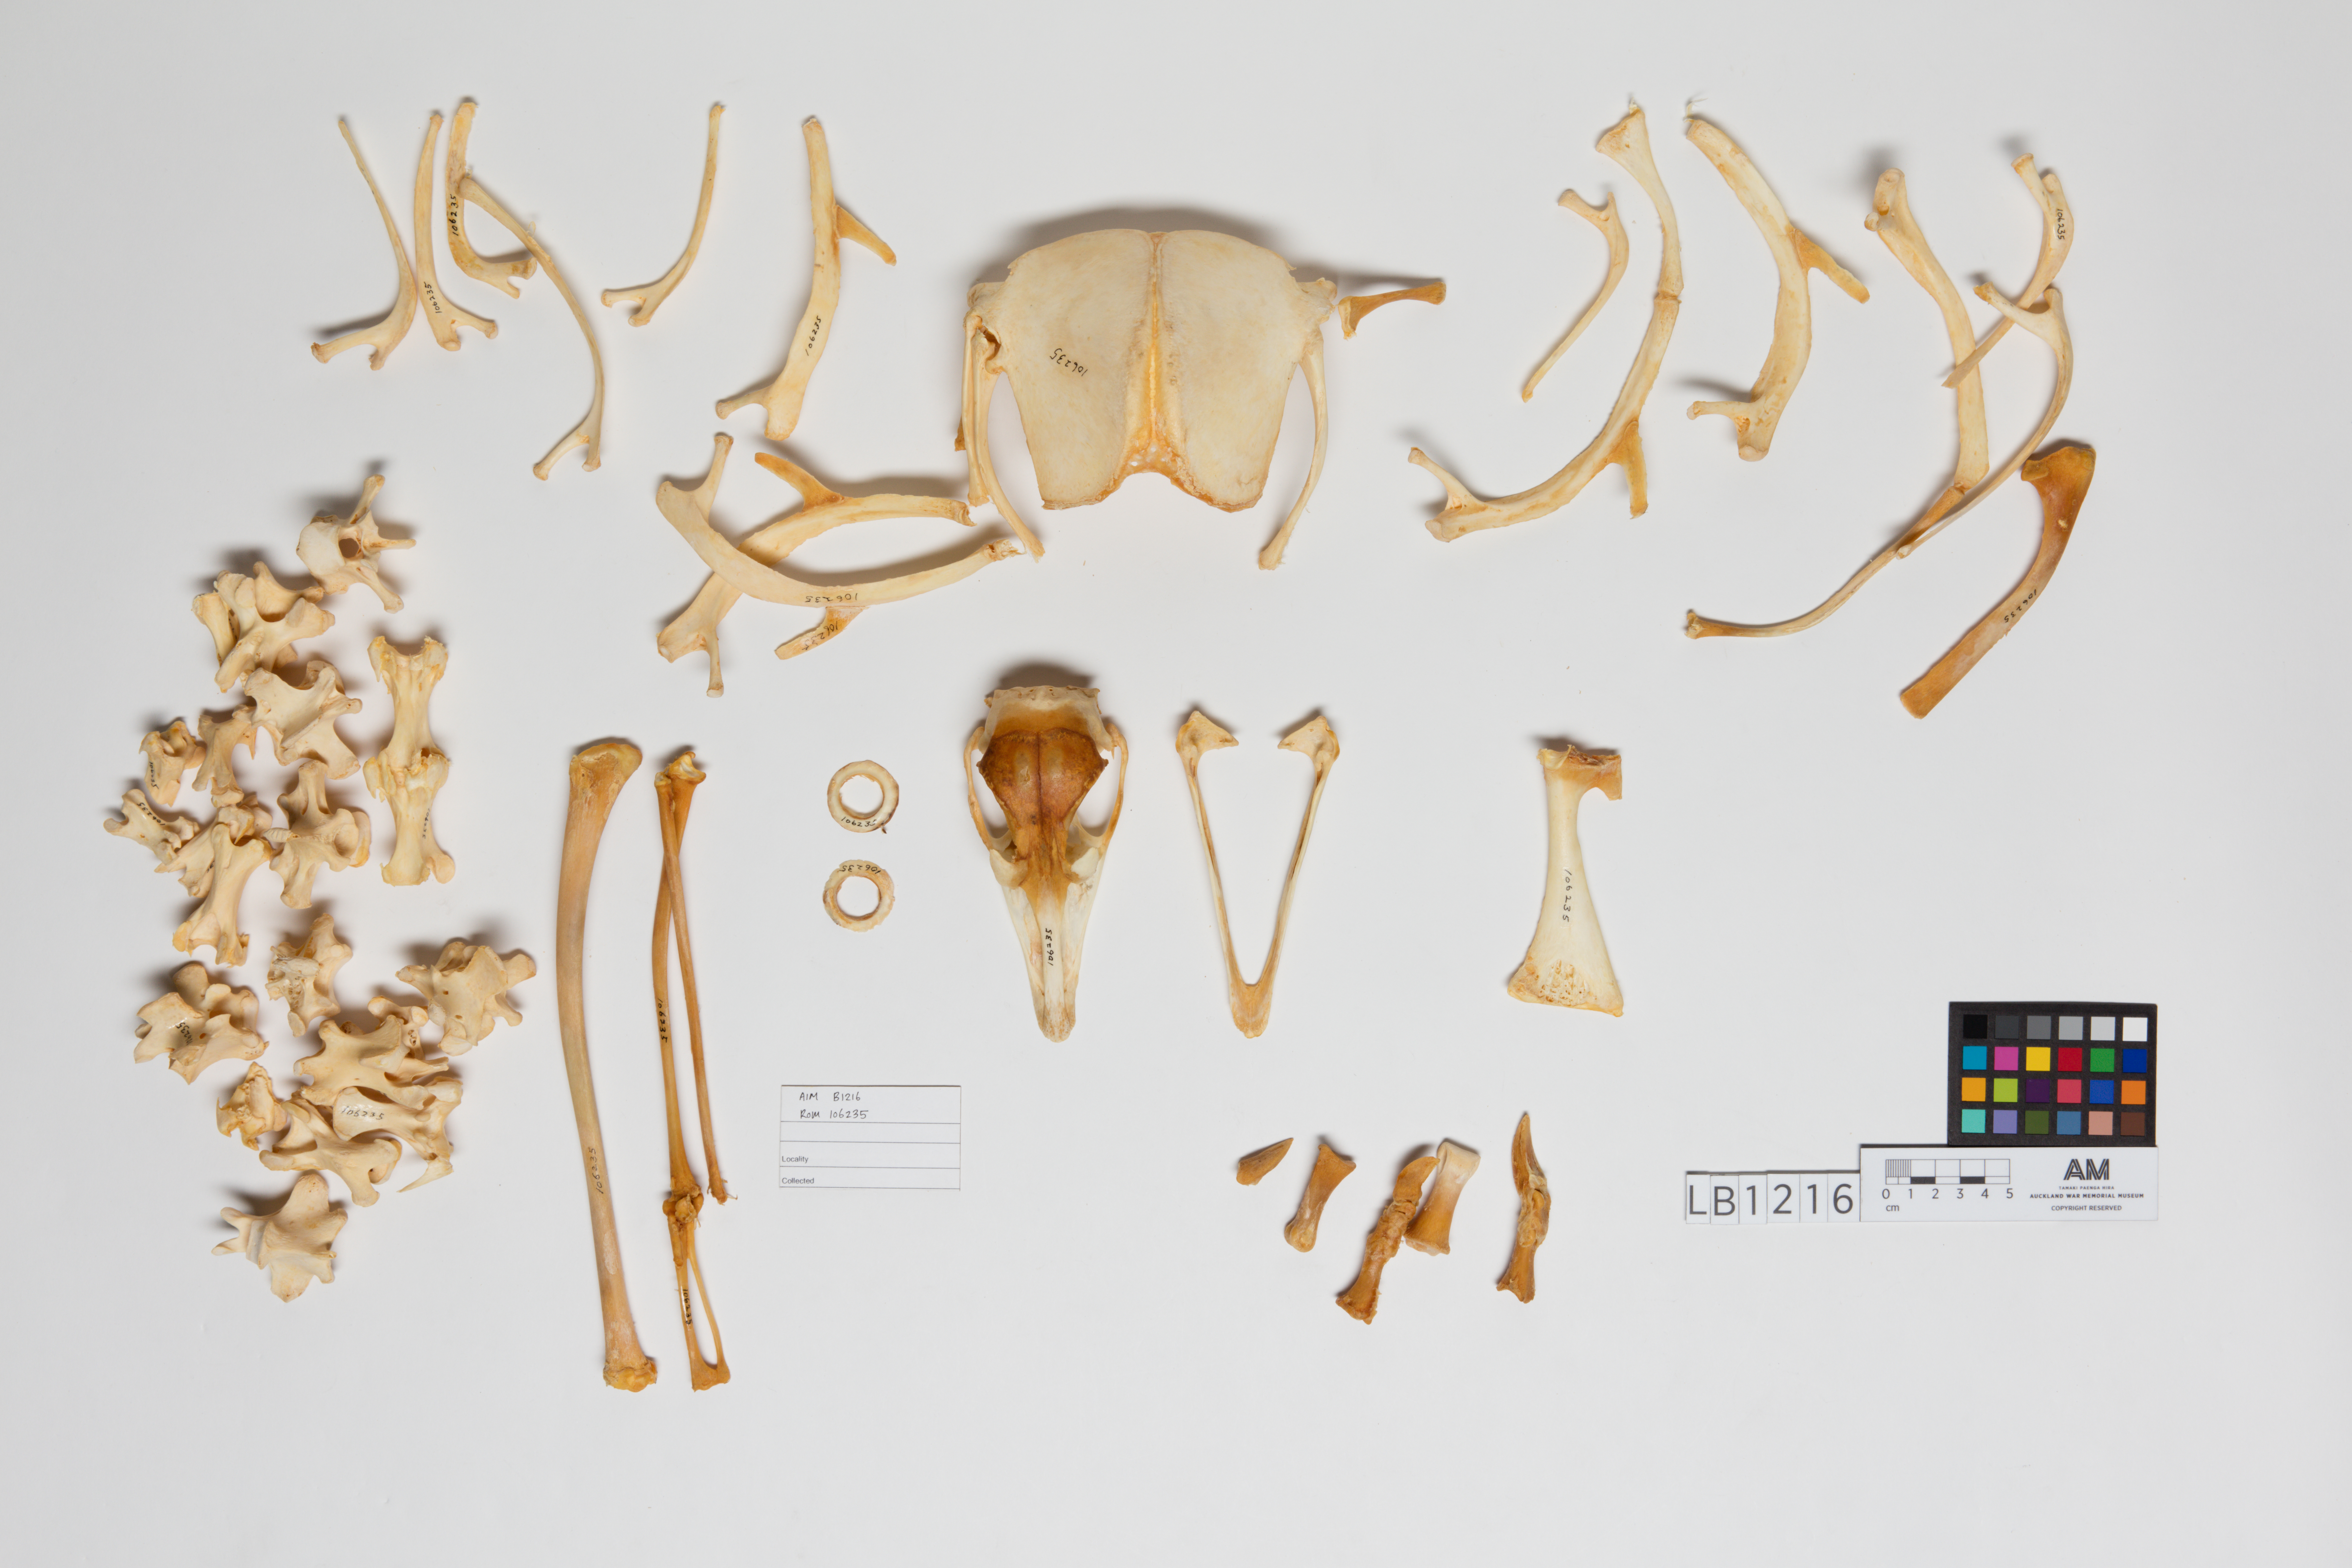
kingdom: Animalia
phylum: Chordata
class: Aves
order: Rheiformes
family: Rheidae
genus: Rhea
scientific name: Rhea pennata
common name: Lesser rhea
